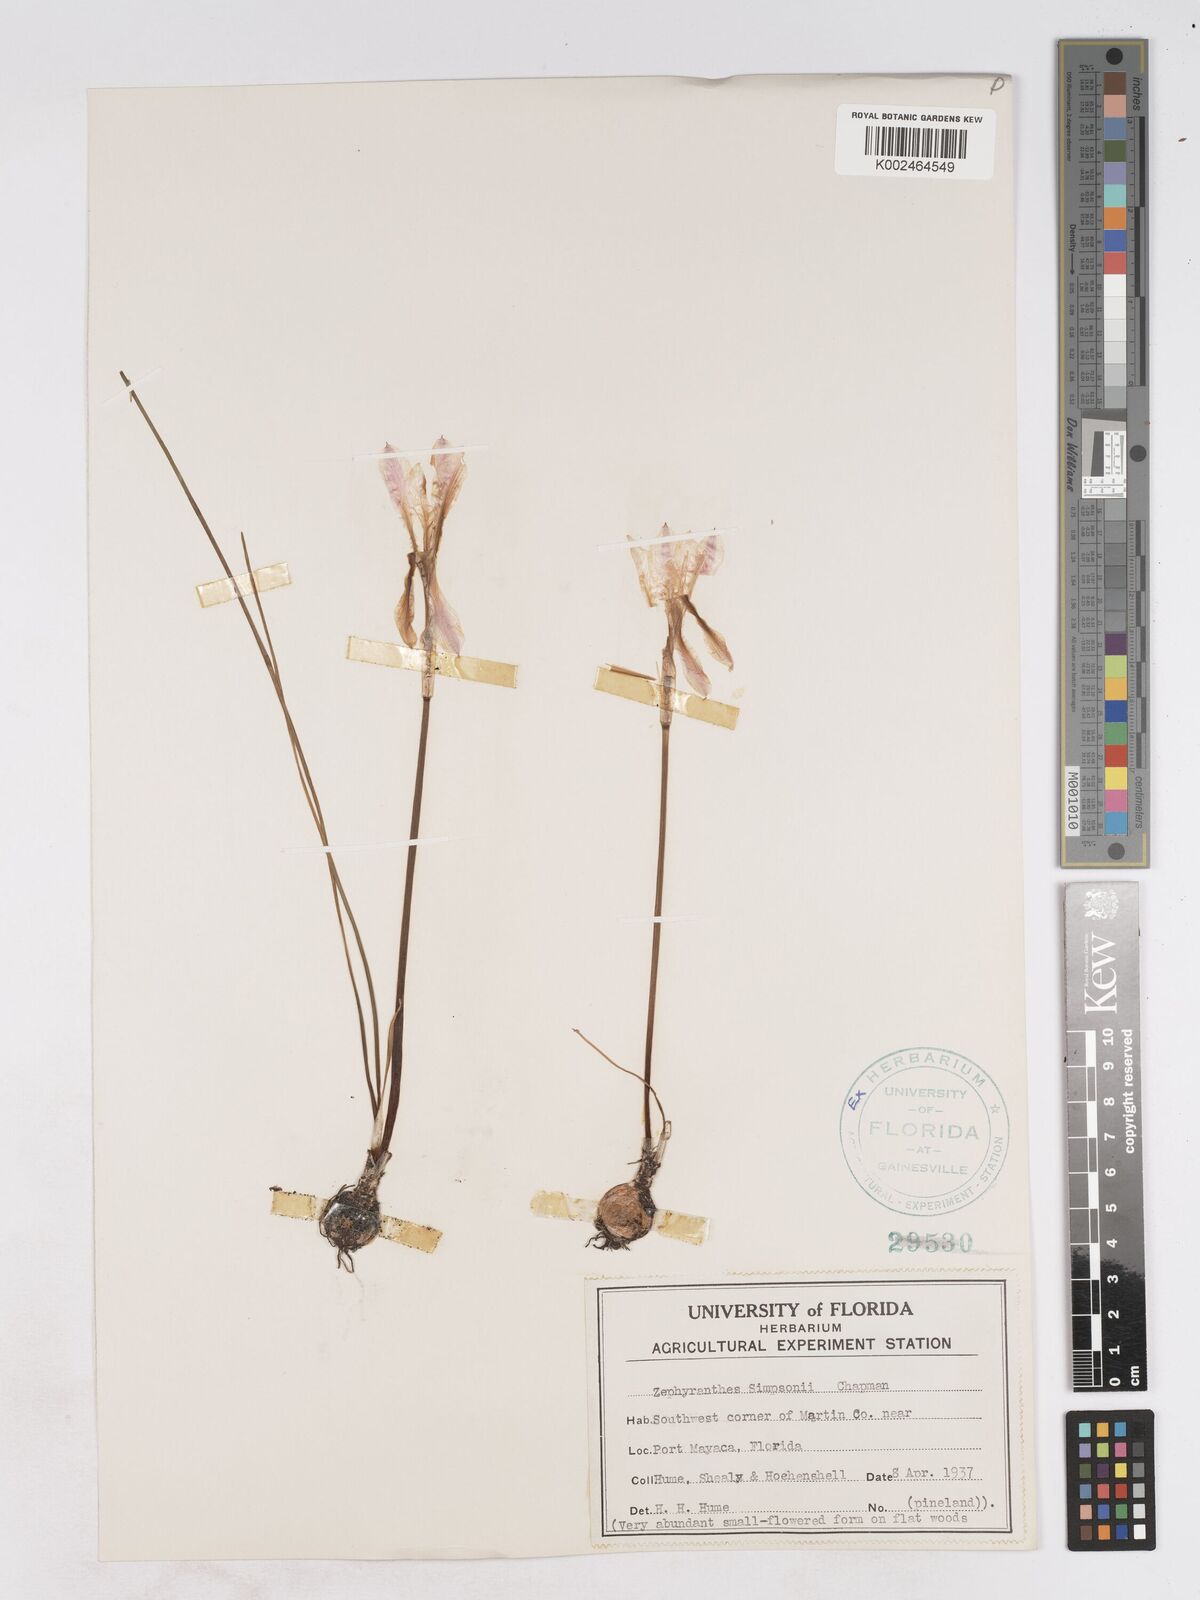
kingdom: Plantae
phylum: Tracheophyta
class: Liliopsida
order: Asparagales
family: Amaryllidaceae
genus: Zephyranthes
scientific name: Zephyranthes simpsonii
